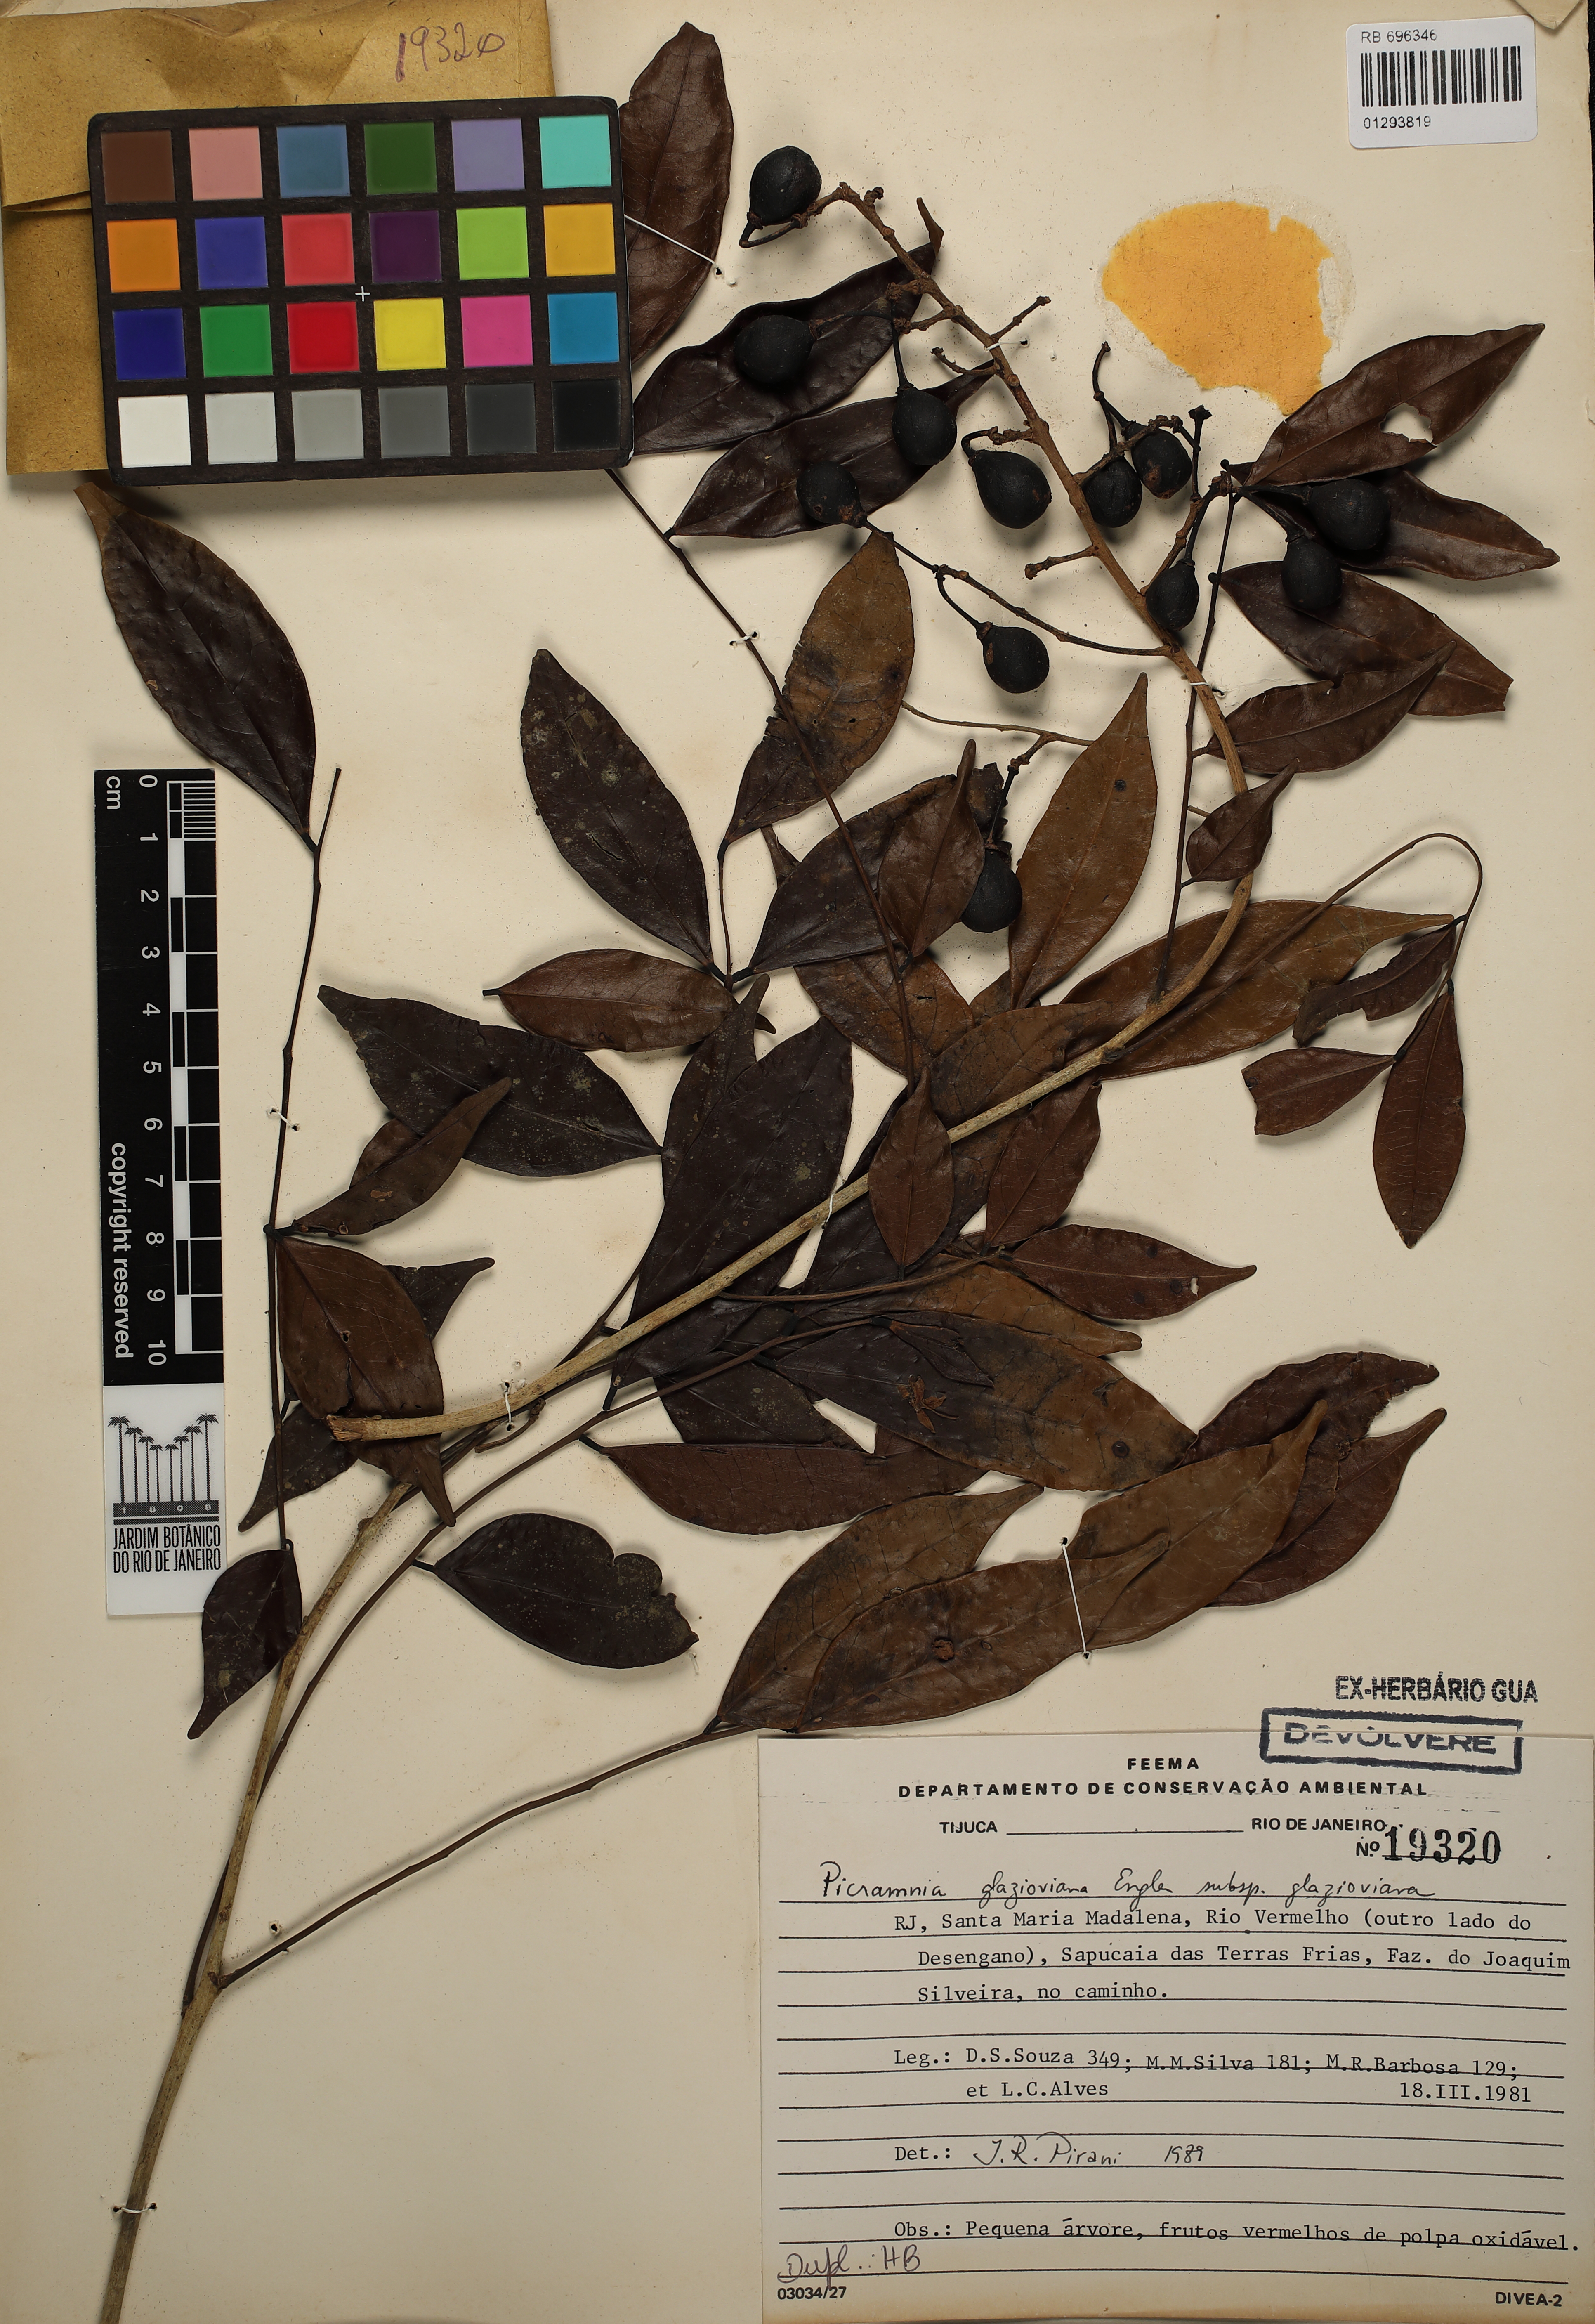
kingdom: Plantae
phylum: Tracheophyta
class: Magnoliopsida
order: Picramniales
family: Picramniaceae
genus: Picramnia
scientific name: Picramnia glazioviana
